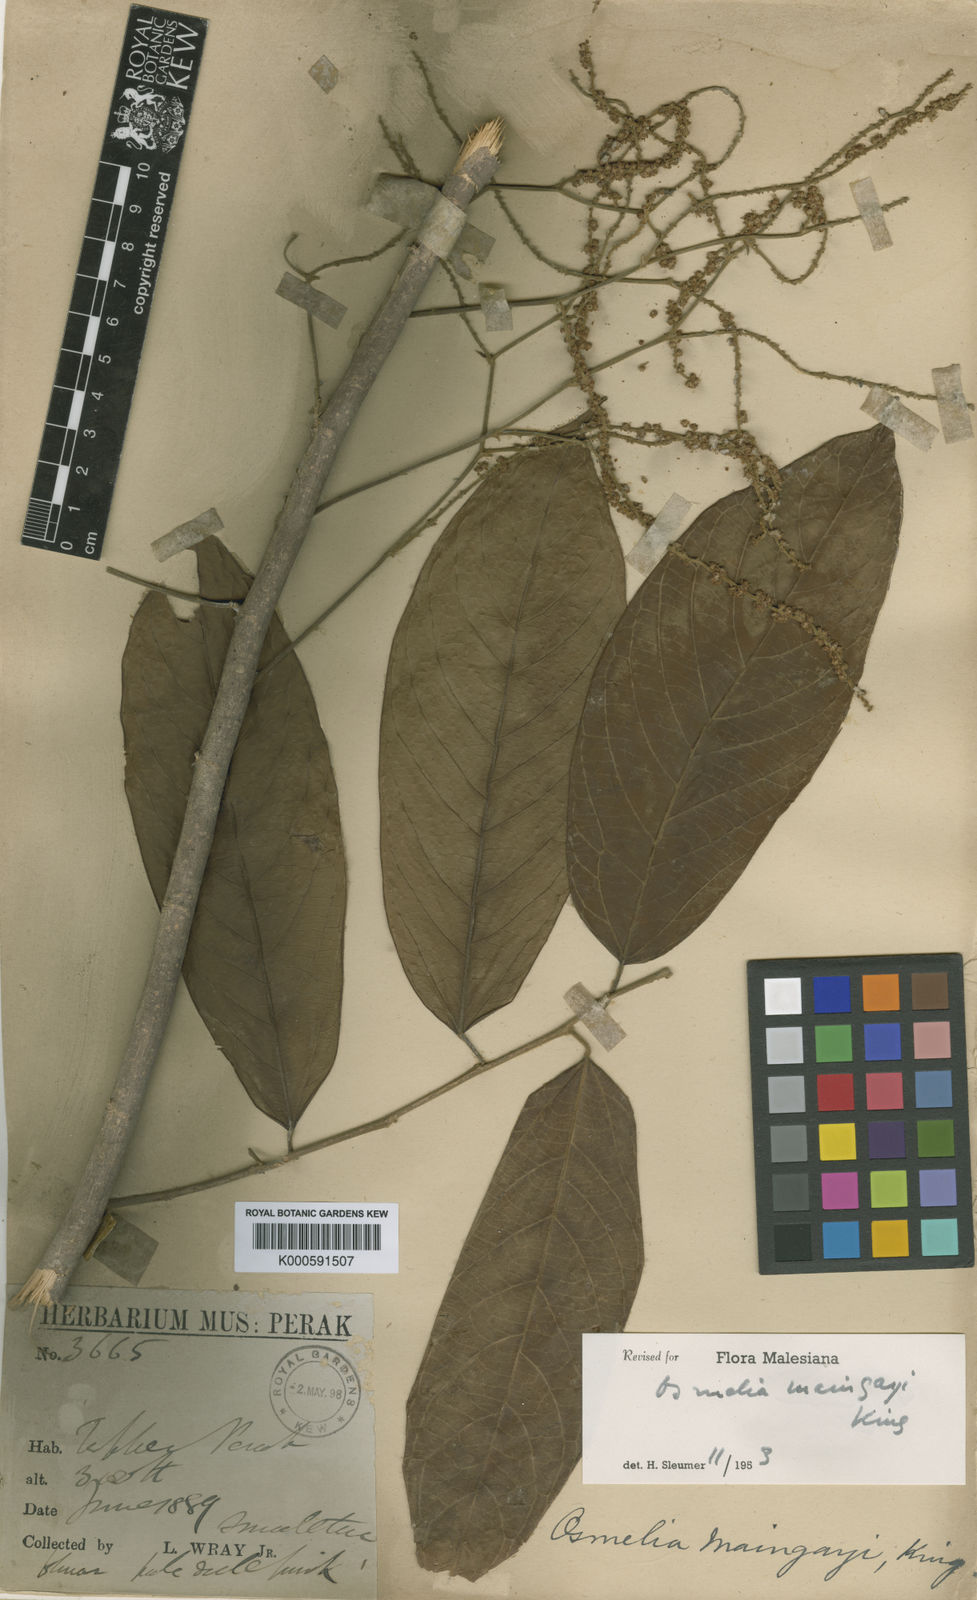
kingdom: Plantae
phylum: Tracheophyta
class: Magnoliopsida
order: Malpighiales
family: Salicaceae
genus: Osmelia
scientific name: Osmelia maingayi
